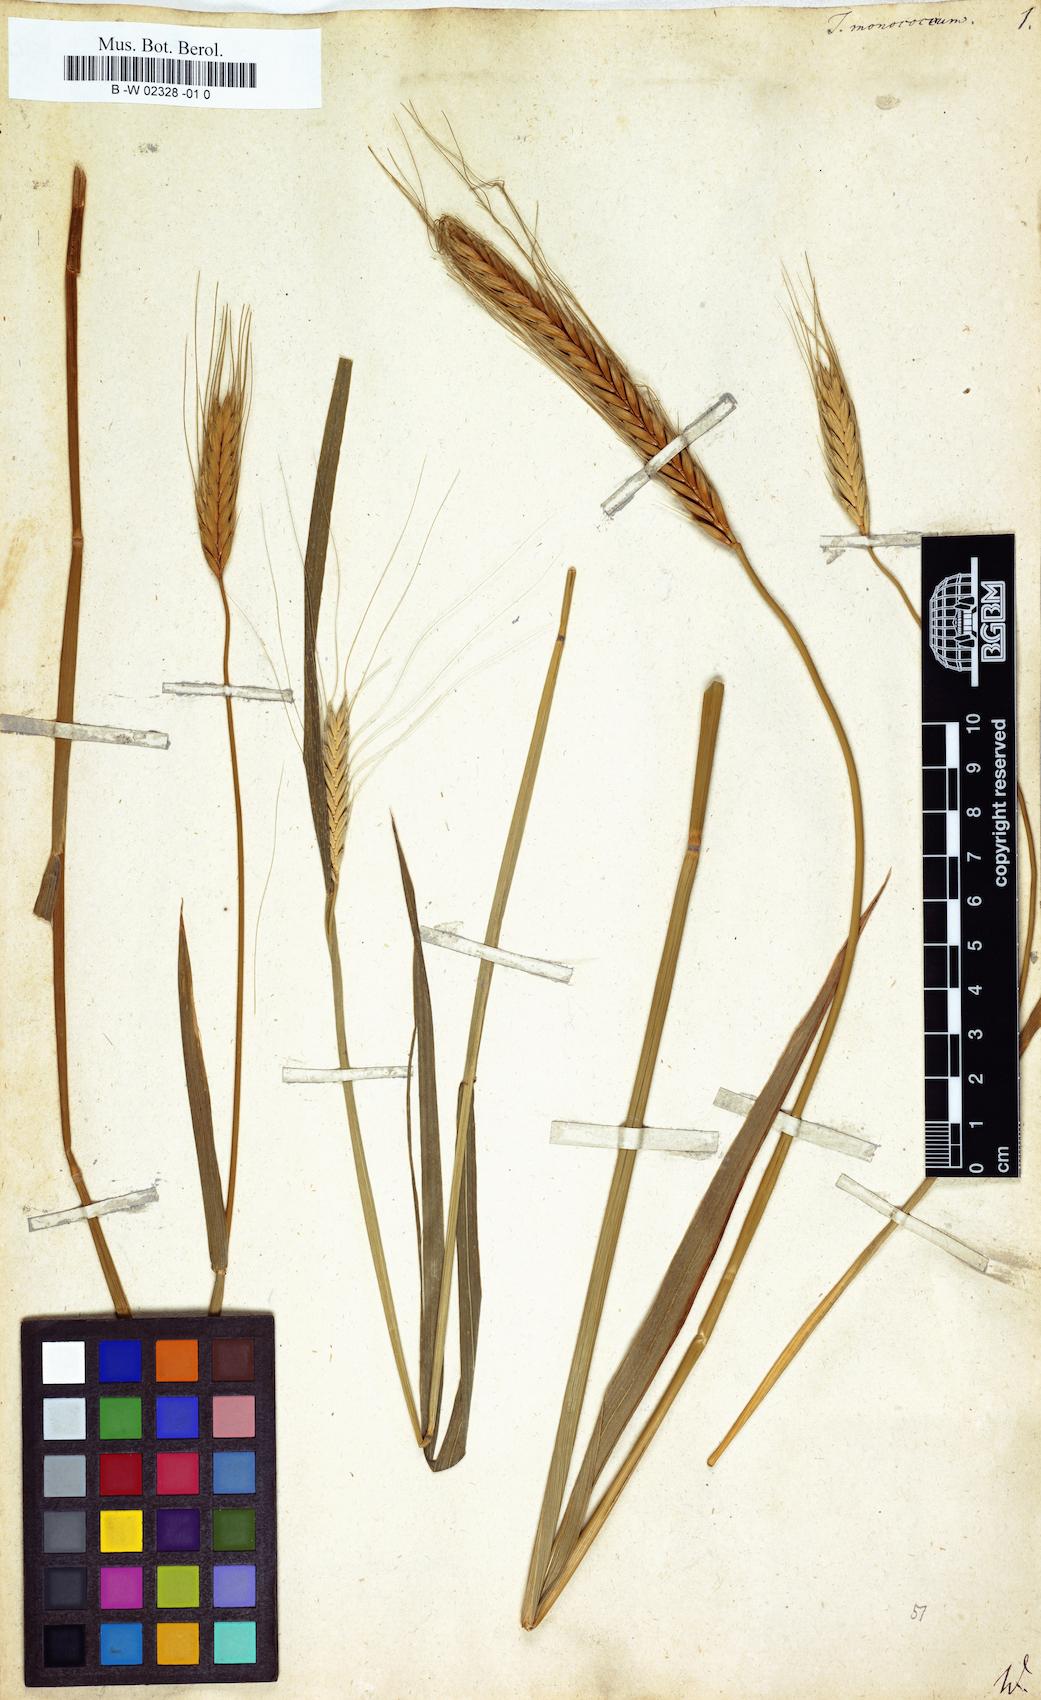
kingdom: Plantae
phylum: Tracheophyta
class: Liliopsida
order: Poales
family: Poaceae
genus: Triticum
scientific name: Triticum monococcum
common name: Einkorn
